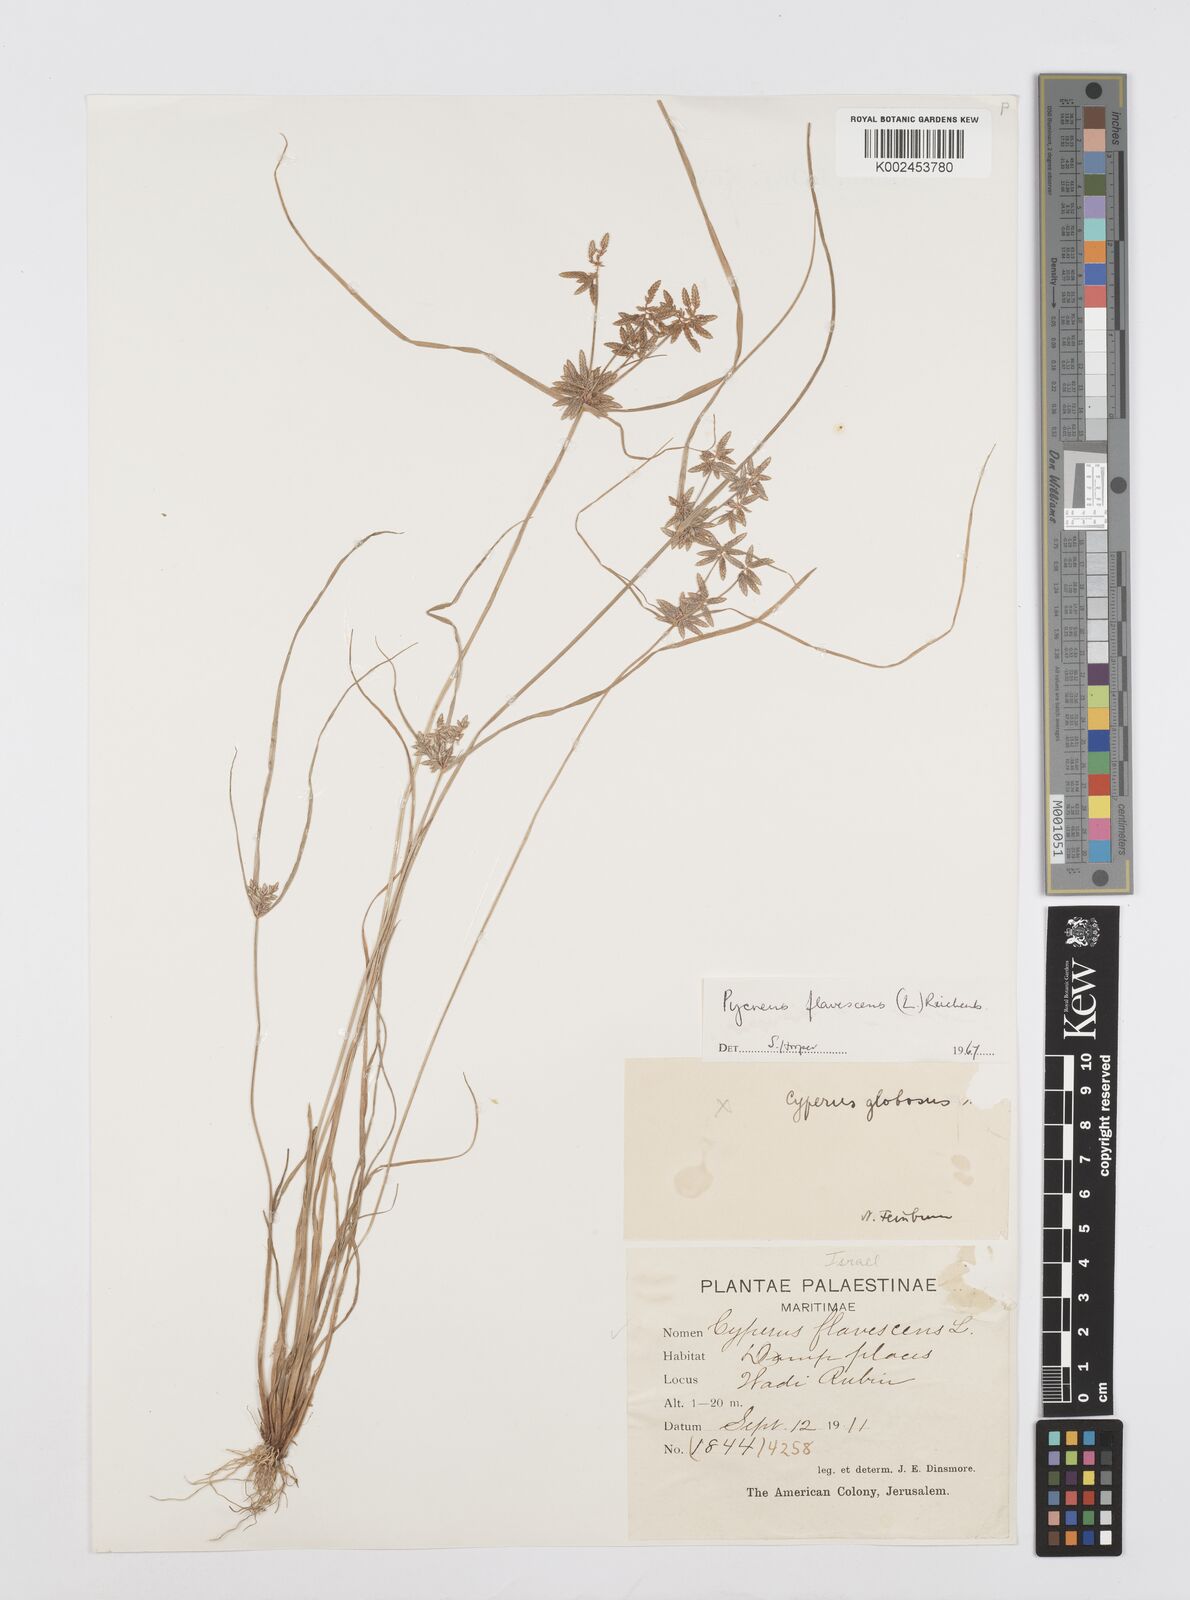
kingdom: Plantae
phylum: Tracheophyta
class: Liliopsida
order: Poales
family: Cyperaceae
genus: Cyperus
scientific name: Cyperus flavescens
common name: Yellow galingale
